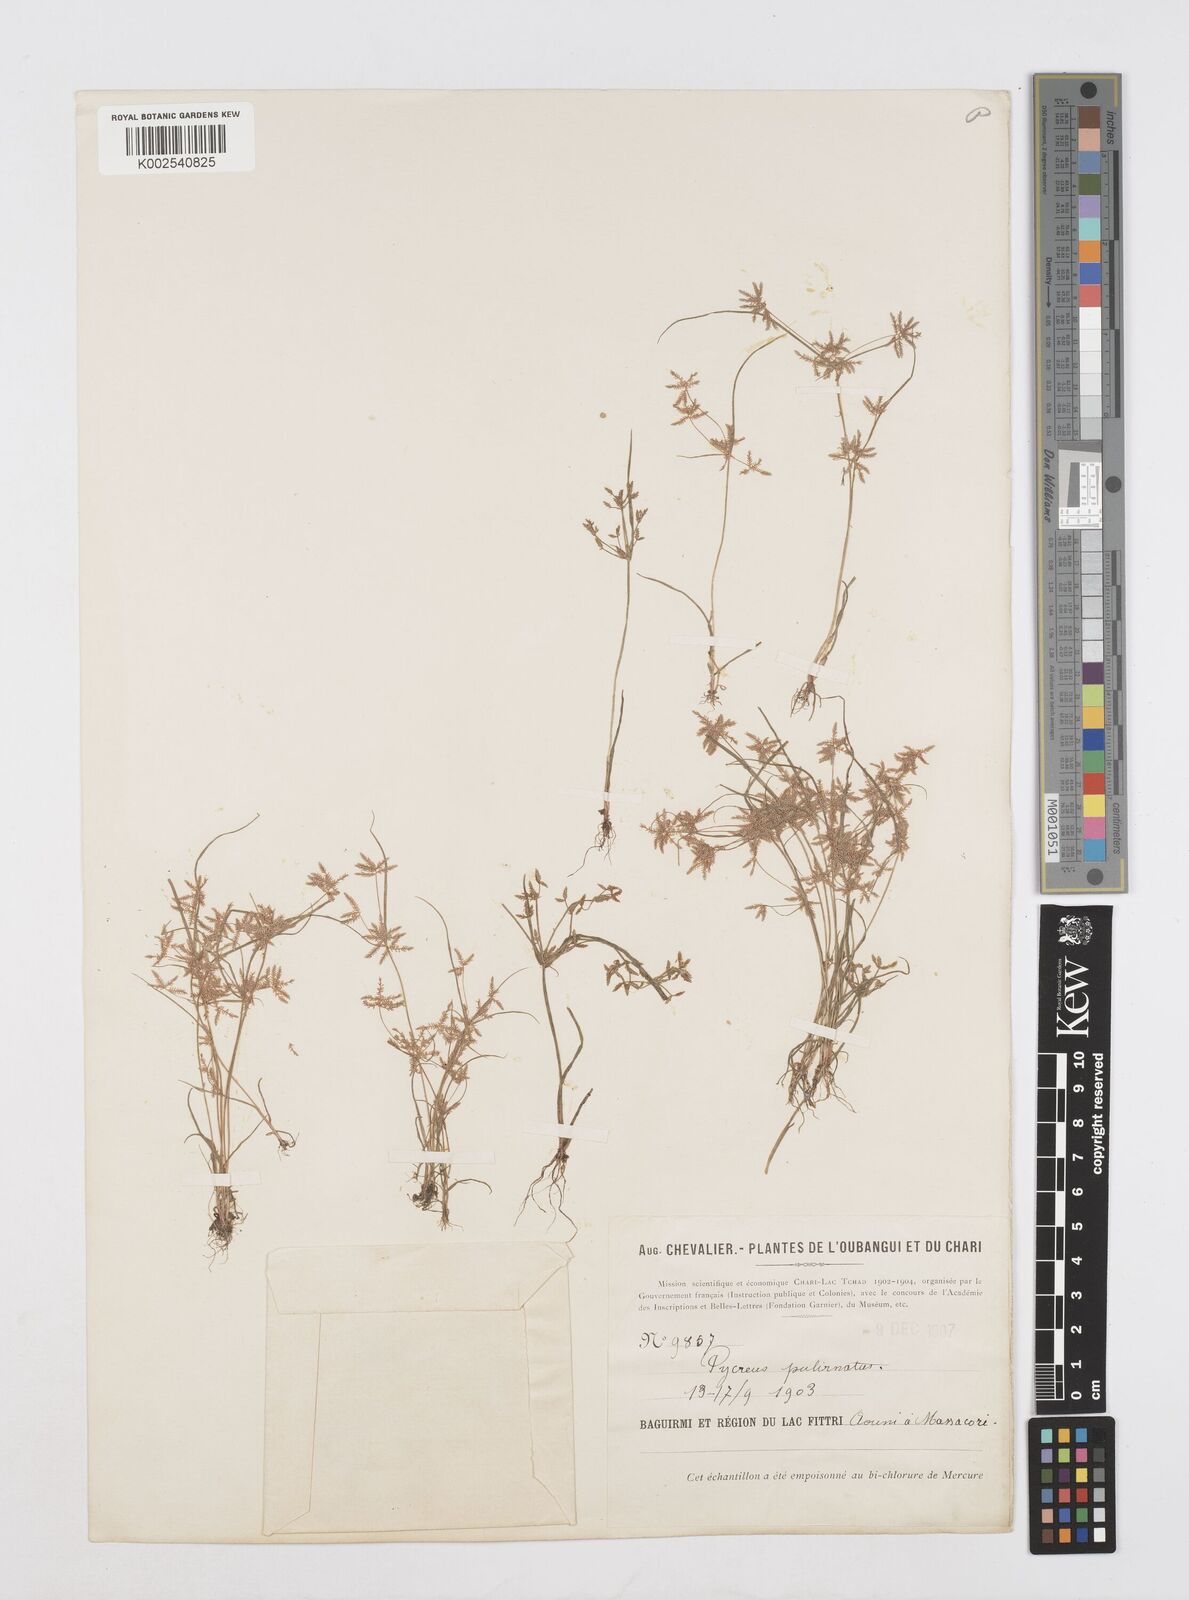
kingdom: Plantae
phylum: Tracheophyta
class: Liliopsida
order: Poales
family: Cyperaceae
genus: Cyperus
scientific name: Cyperus pumilus
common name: Low flatsedge
